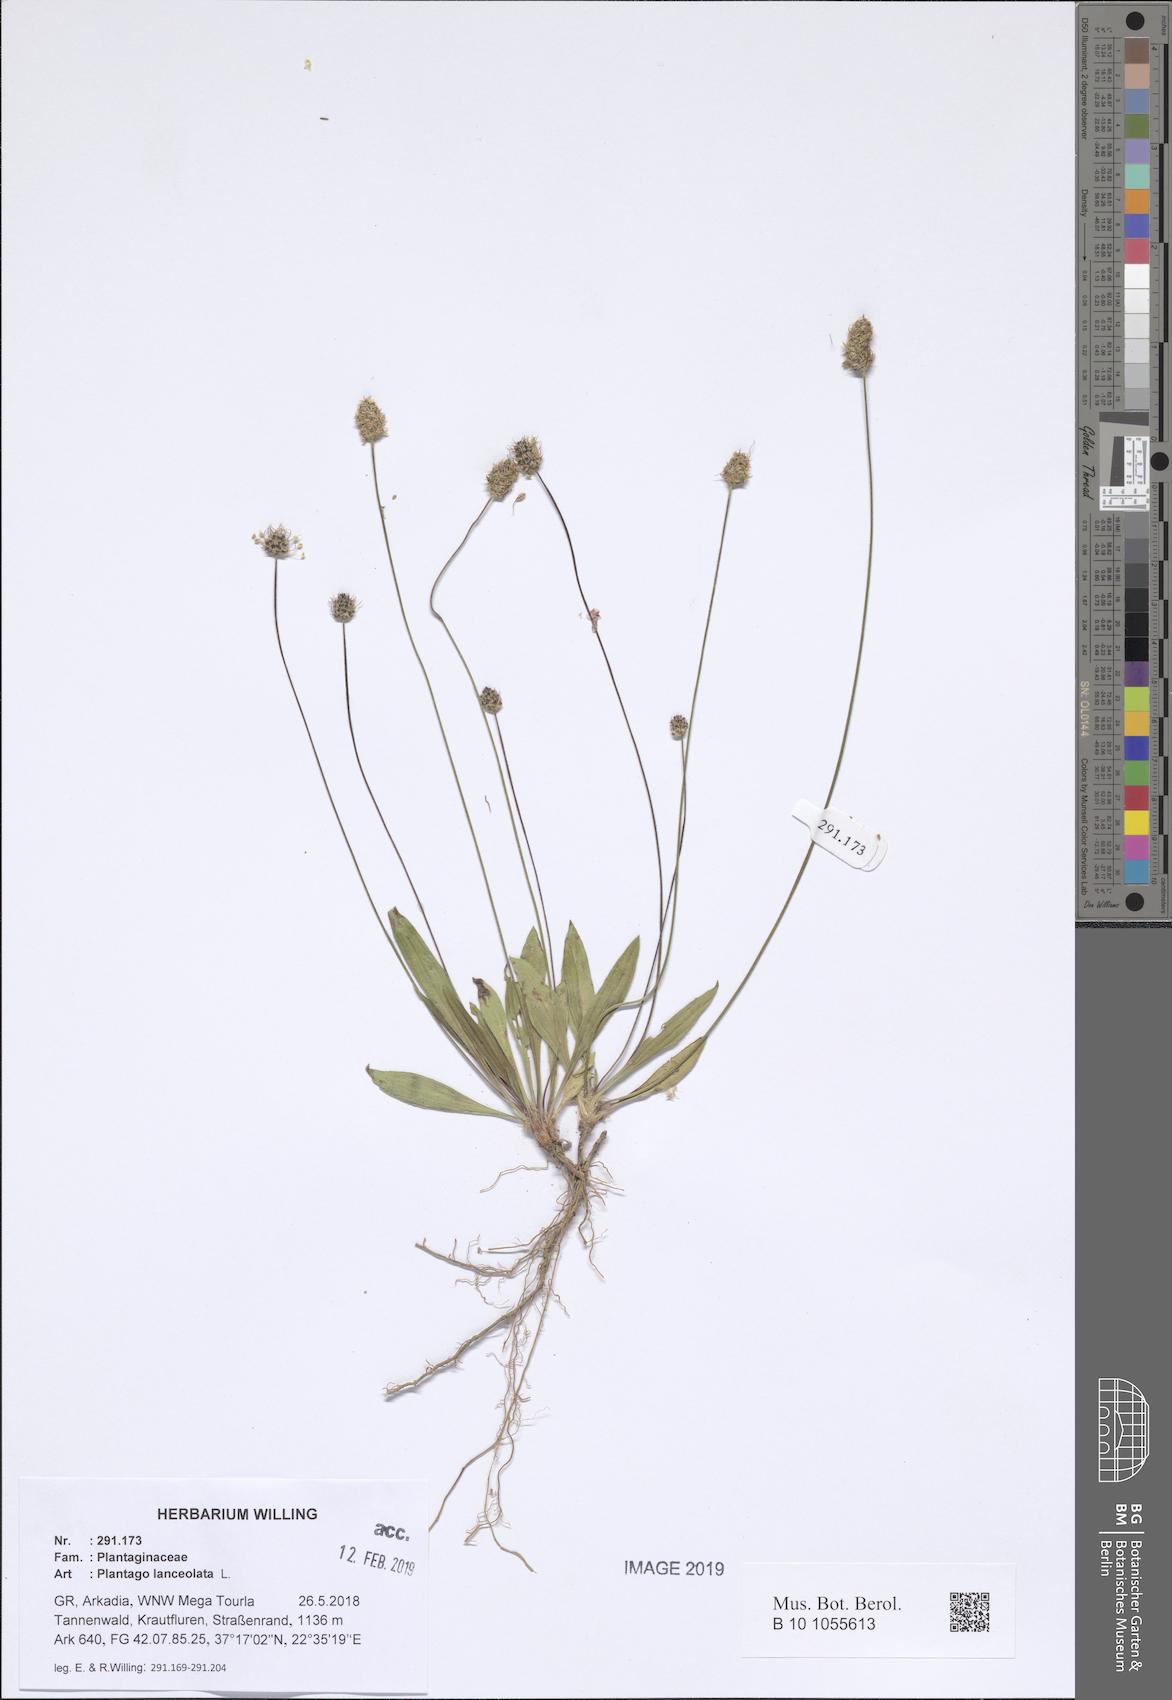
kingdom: Plantae
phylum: Tracheophyta
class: Magnoliopsida
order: Lamiales
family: Plantaginaceae
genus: Plantago
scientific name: Plantago lanceolata
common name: Ribwort plantain
